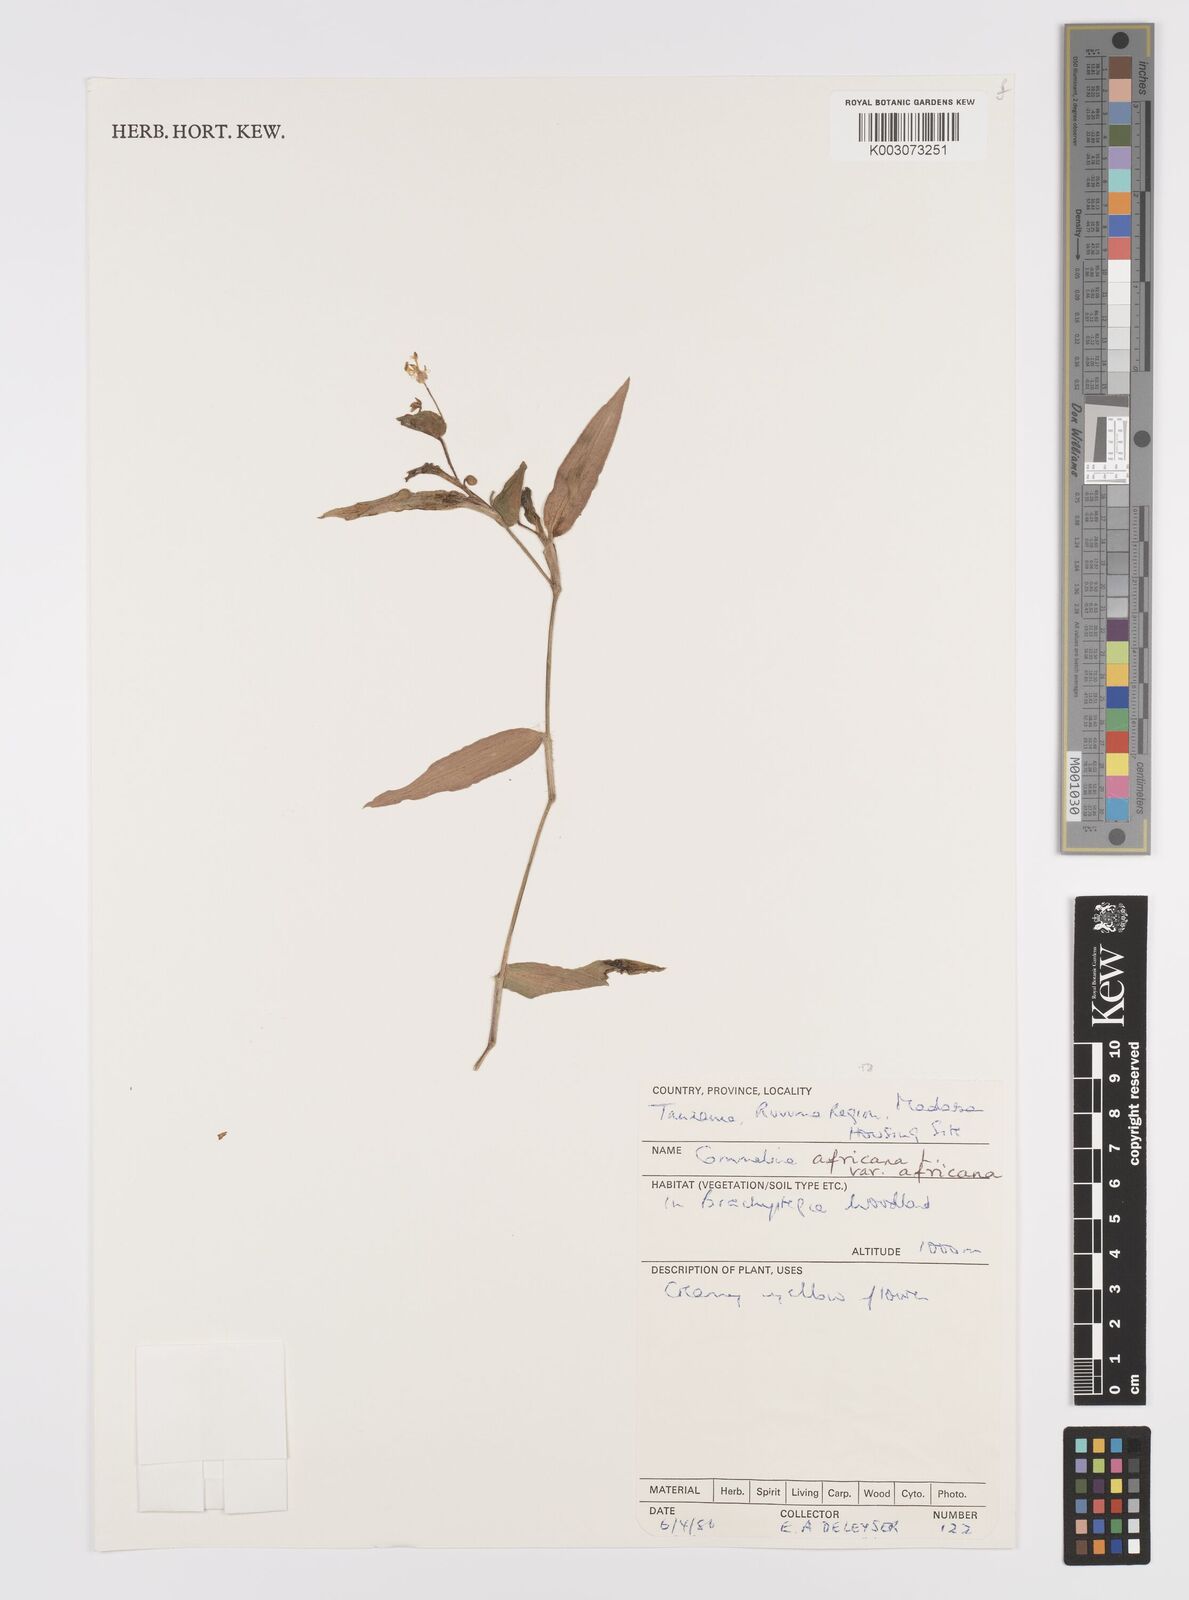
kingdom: Plantae
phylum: Tracheophyta
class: Liliopsida
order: Commelinales
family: Commelinaceae
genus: Commelina
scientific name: Commelina africana
